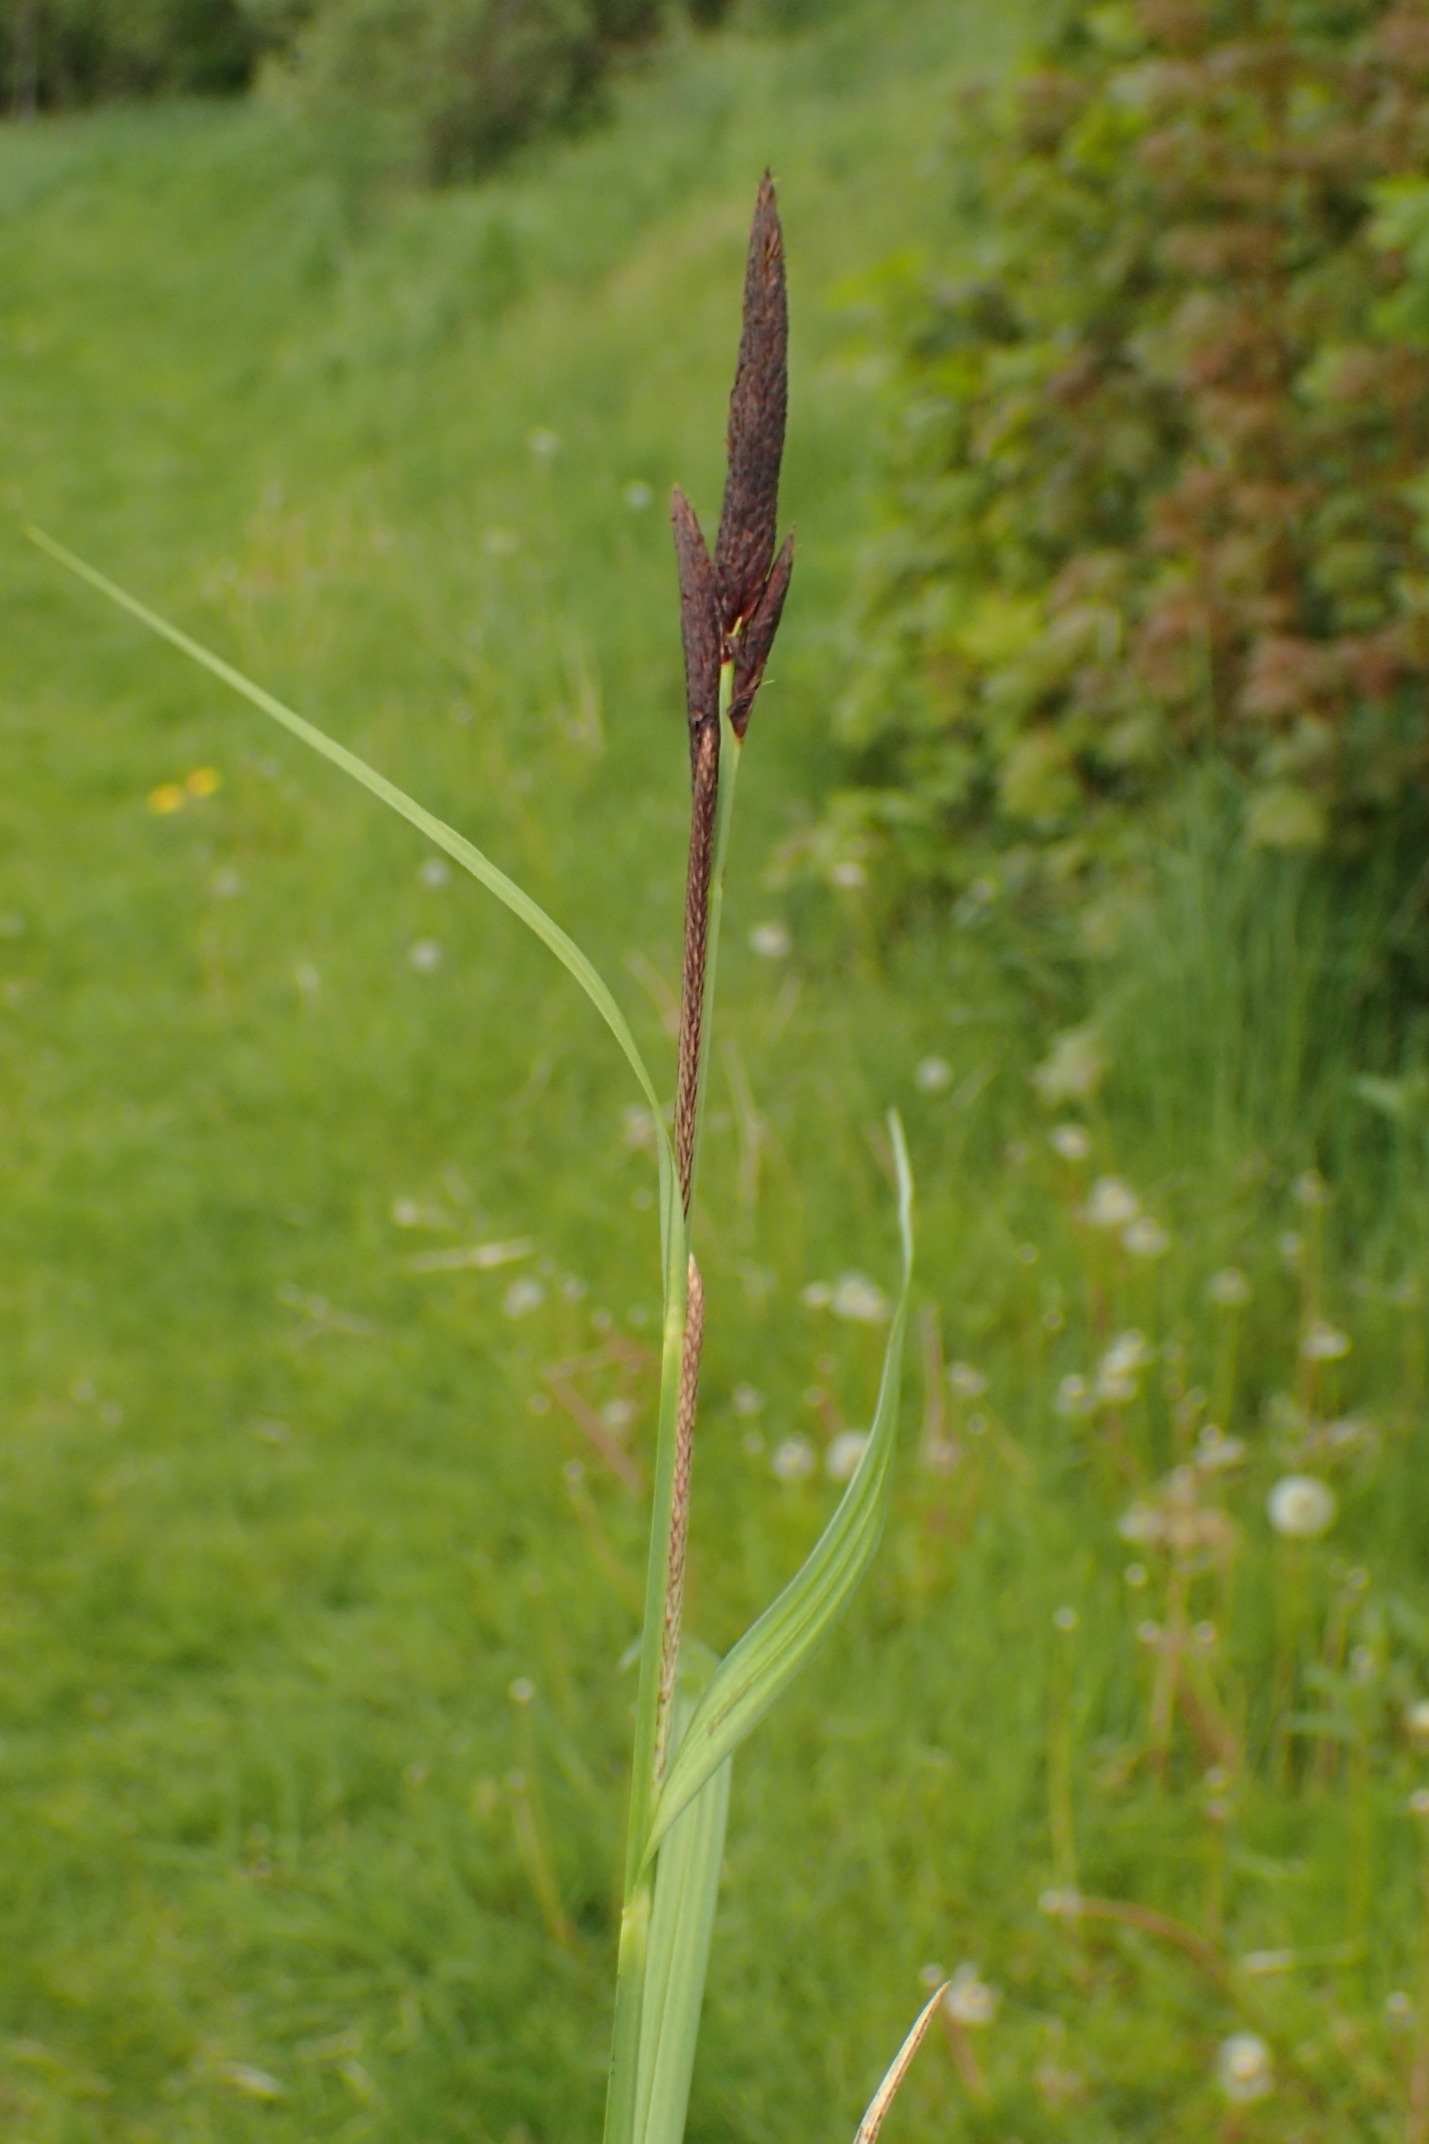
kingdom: Plantae
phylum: Tracheophyta
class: Liliopsida
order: Poales
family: Cyperaceae
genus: Carex
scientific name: Carex acutiformis
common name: Kær-star
